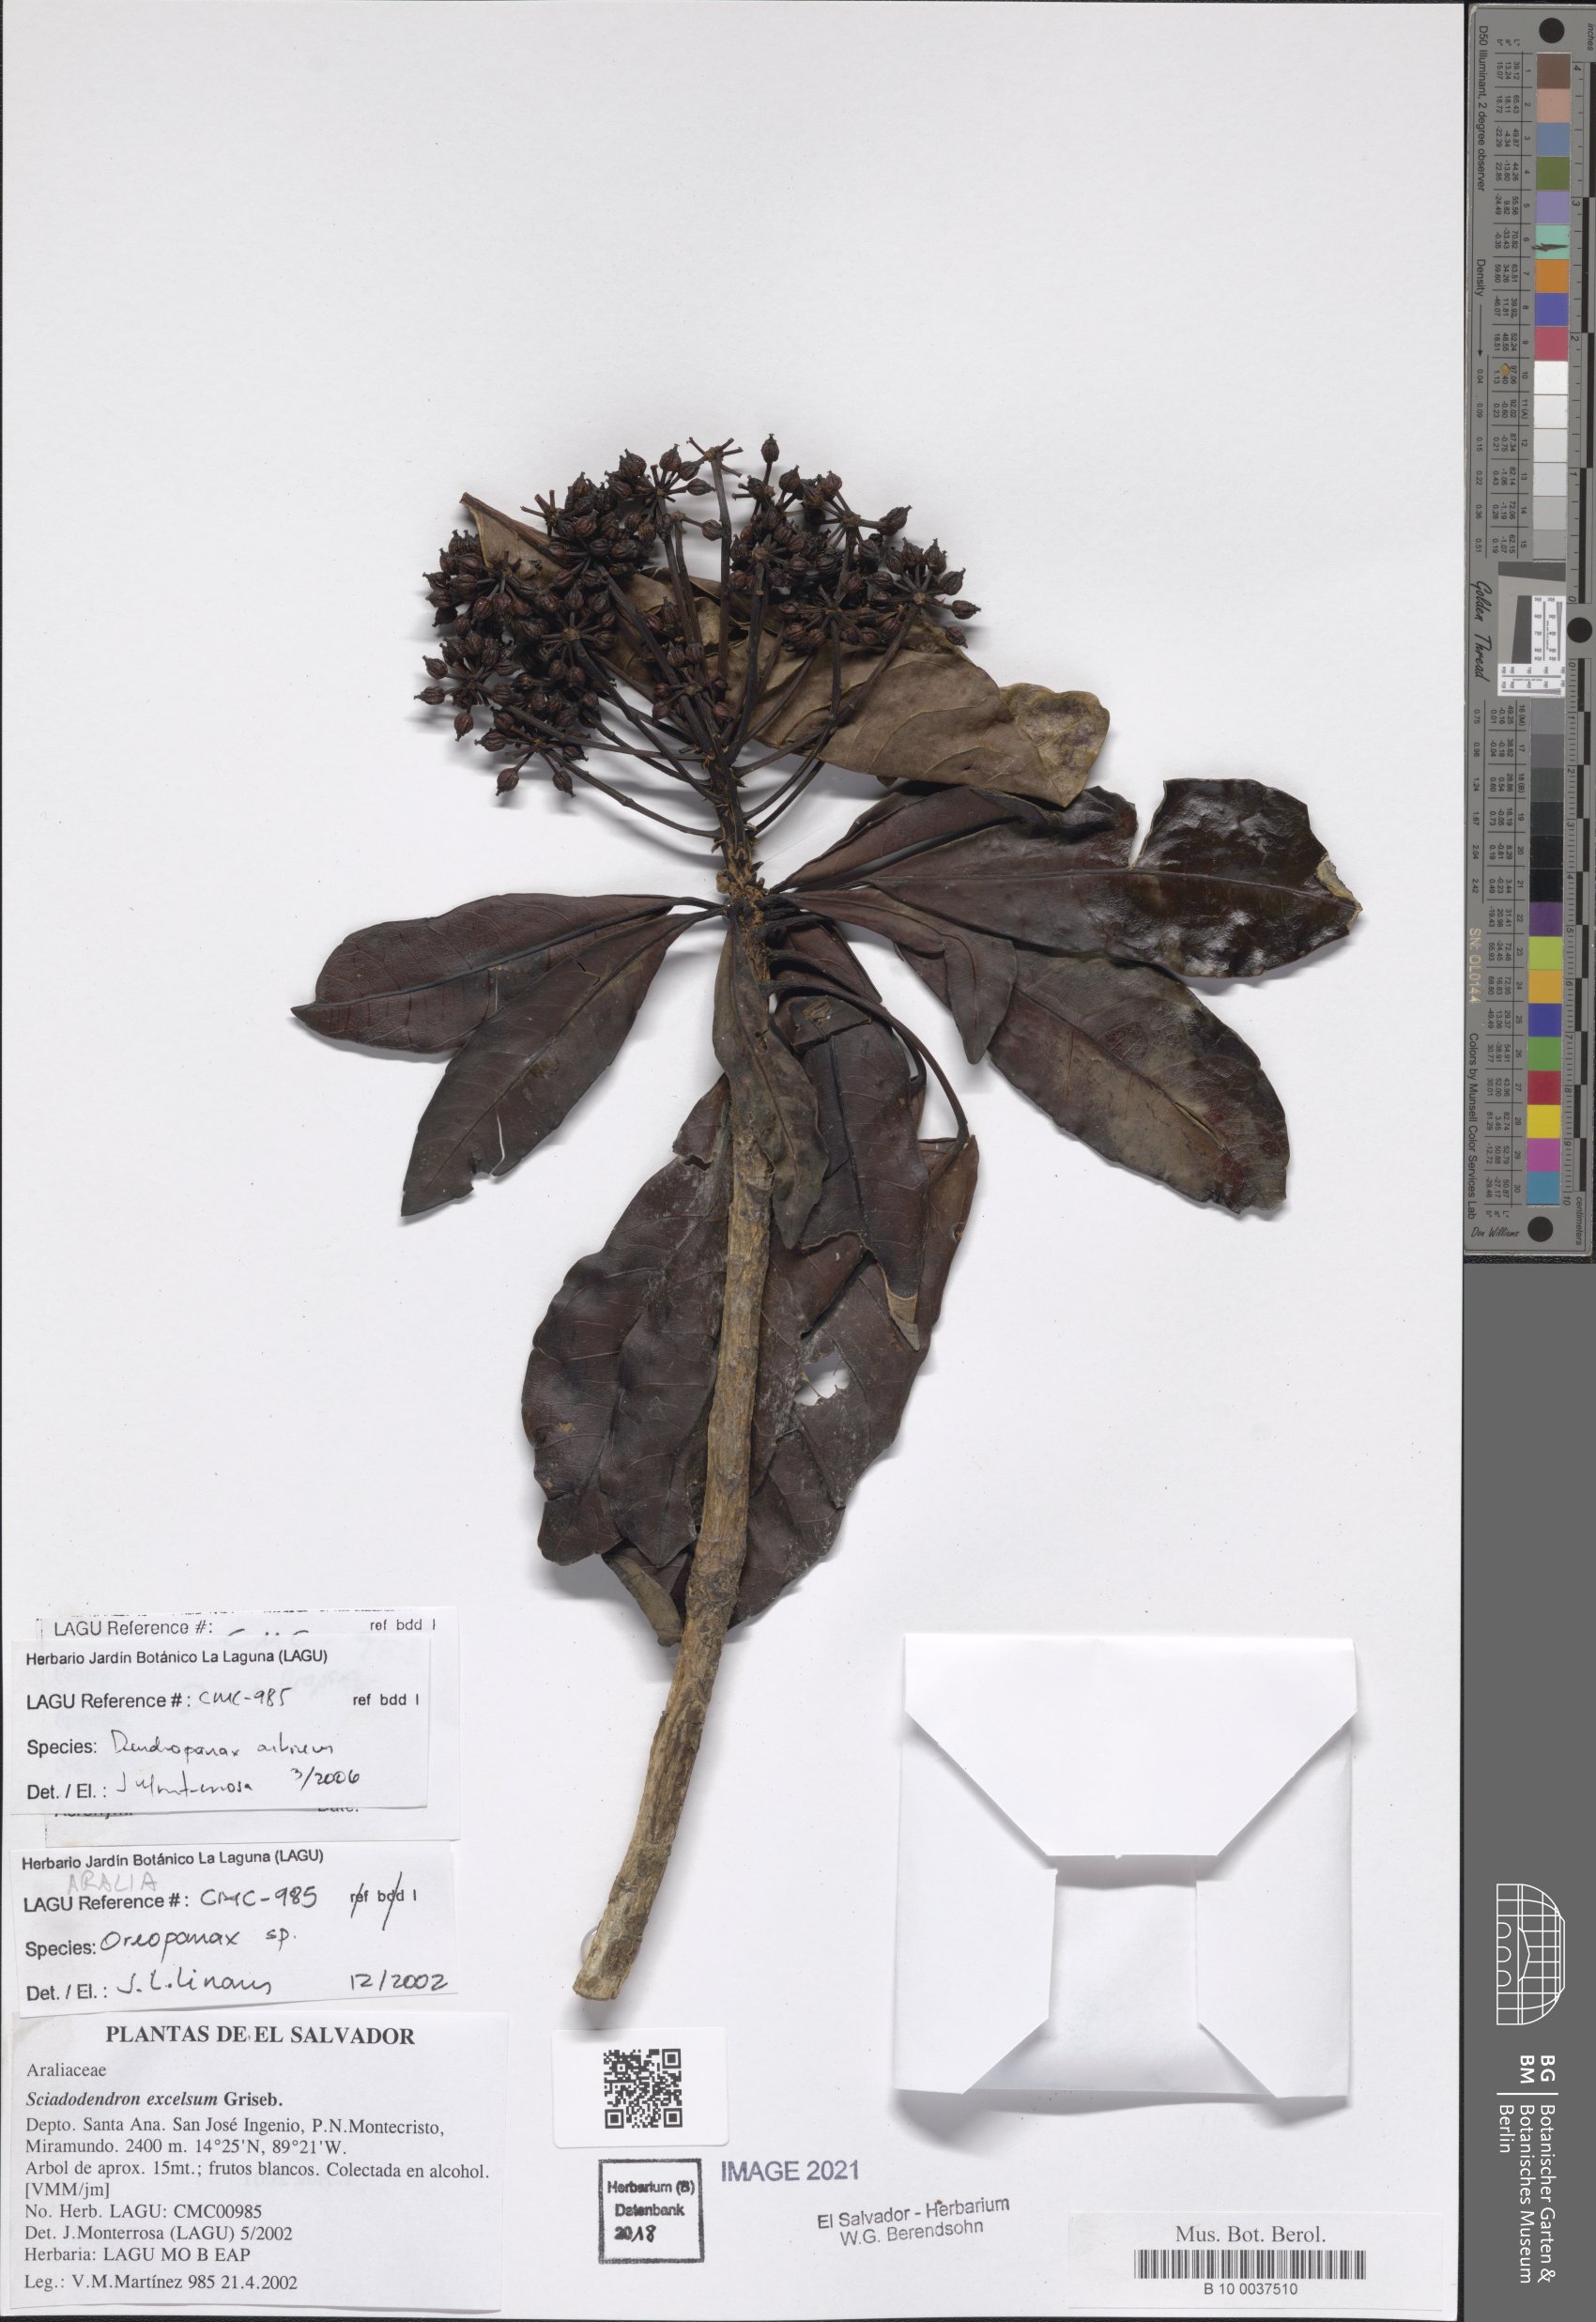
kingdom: Plantae
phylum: Tracheophyta
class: Magnoliopsida
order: Apiales
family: Araliaceae
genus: Dendropanax
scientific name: Dendropanax arboreus
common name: Potato-wood
